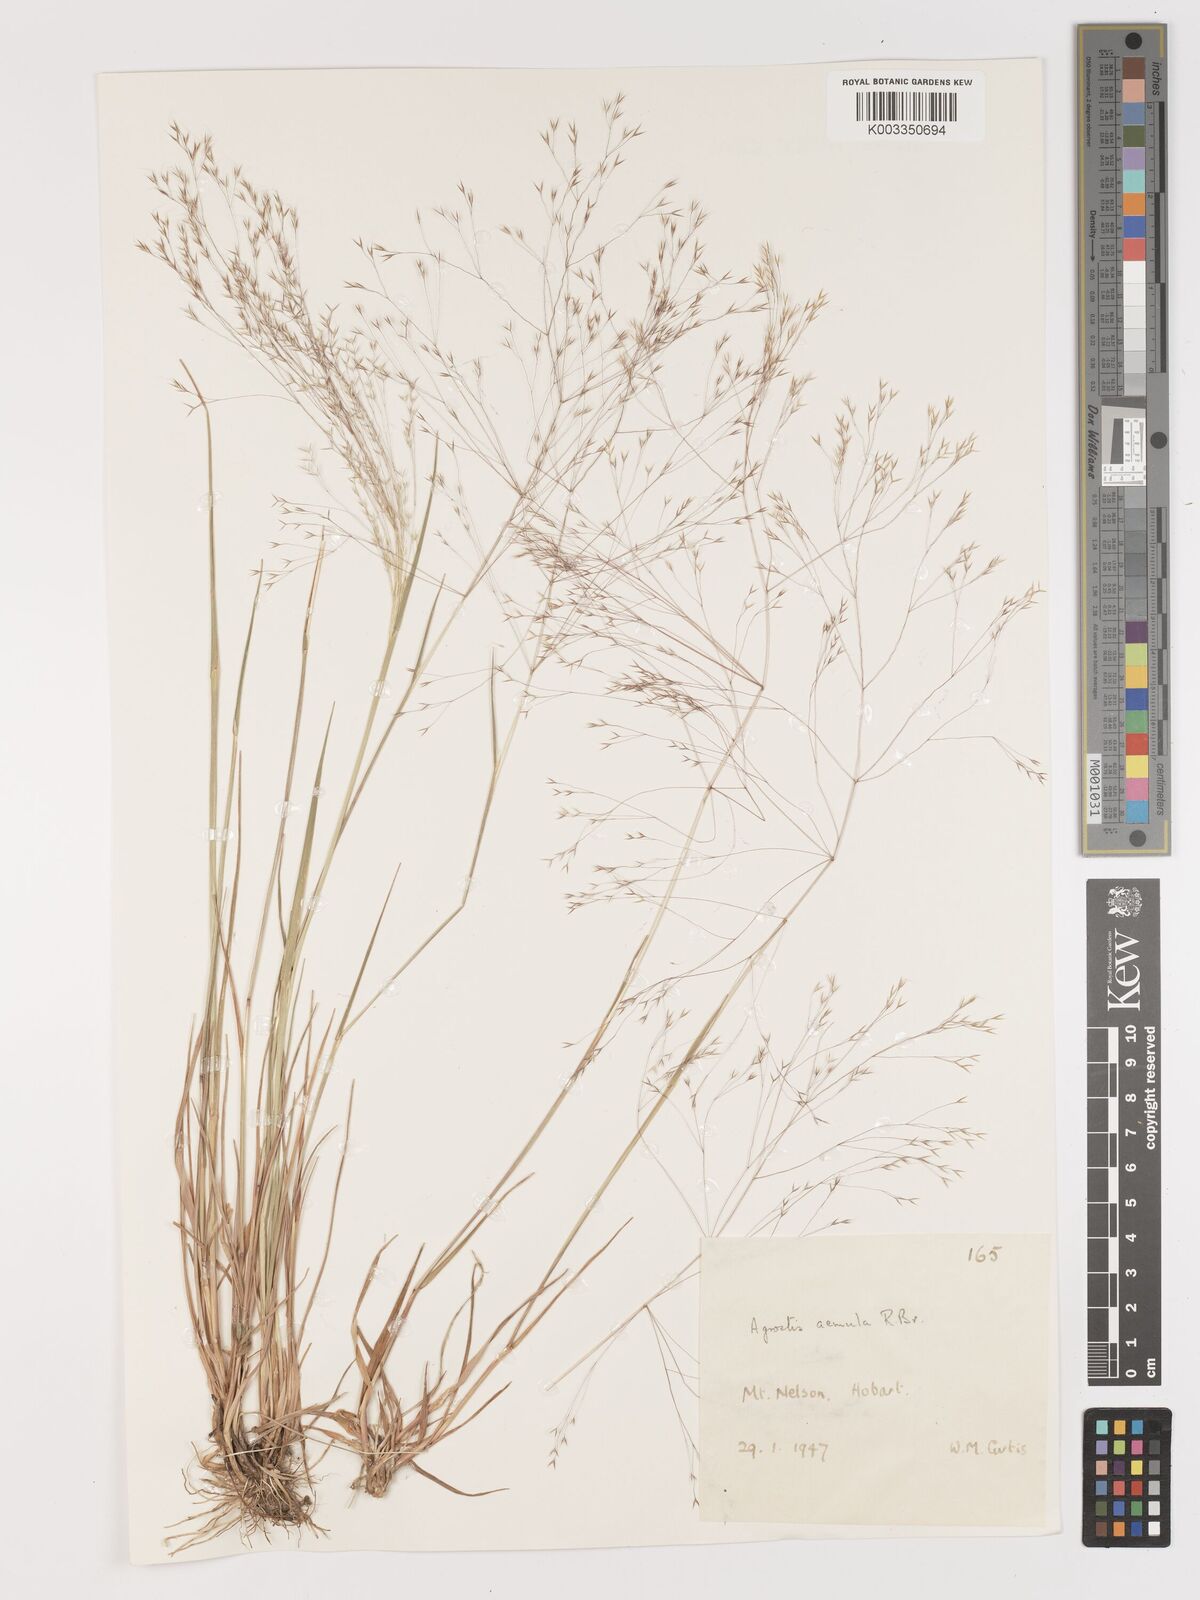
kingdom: Plantae
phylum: Tracheophyta
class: Liliopsida
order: Poales
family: Poaceae
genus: Lachnagrostis
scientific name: Lachnagrostis aemula
